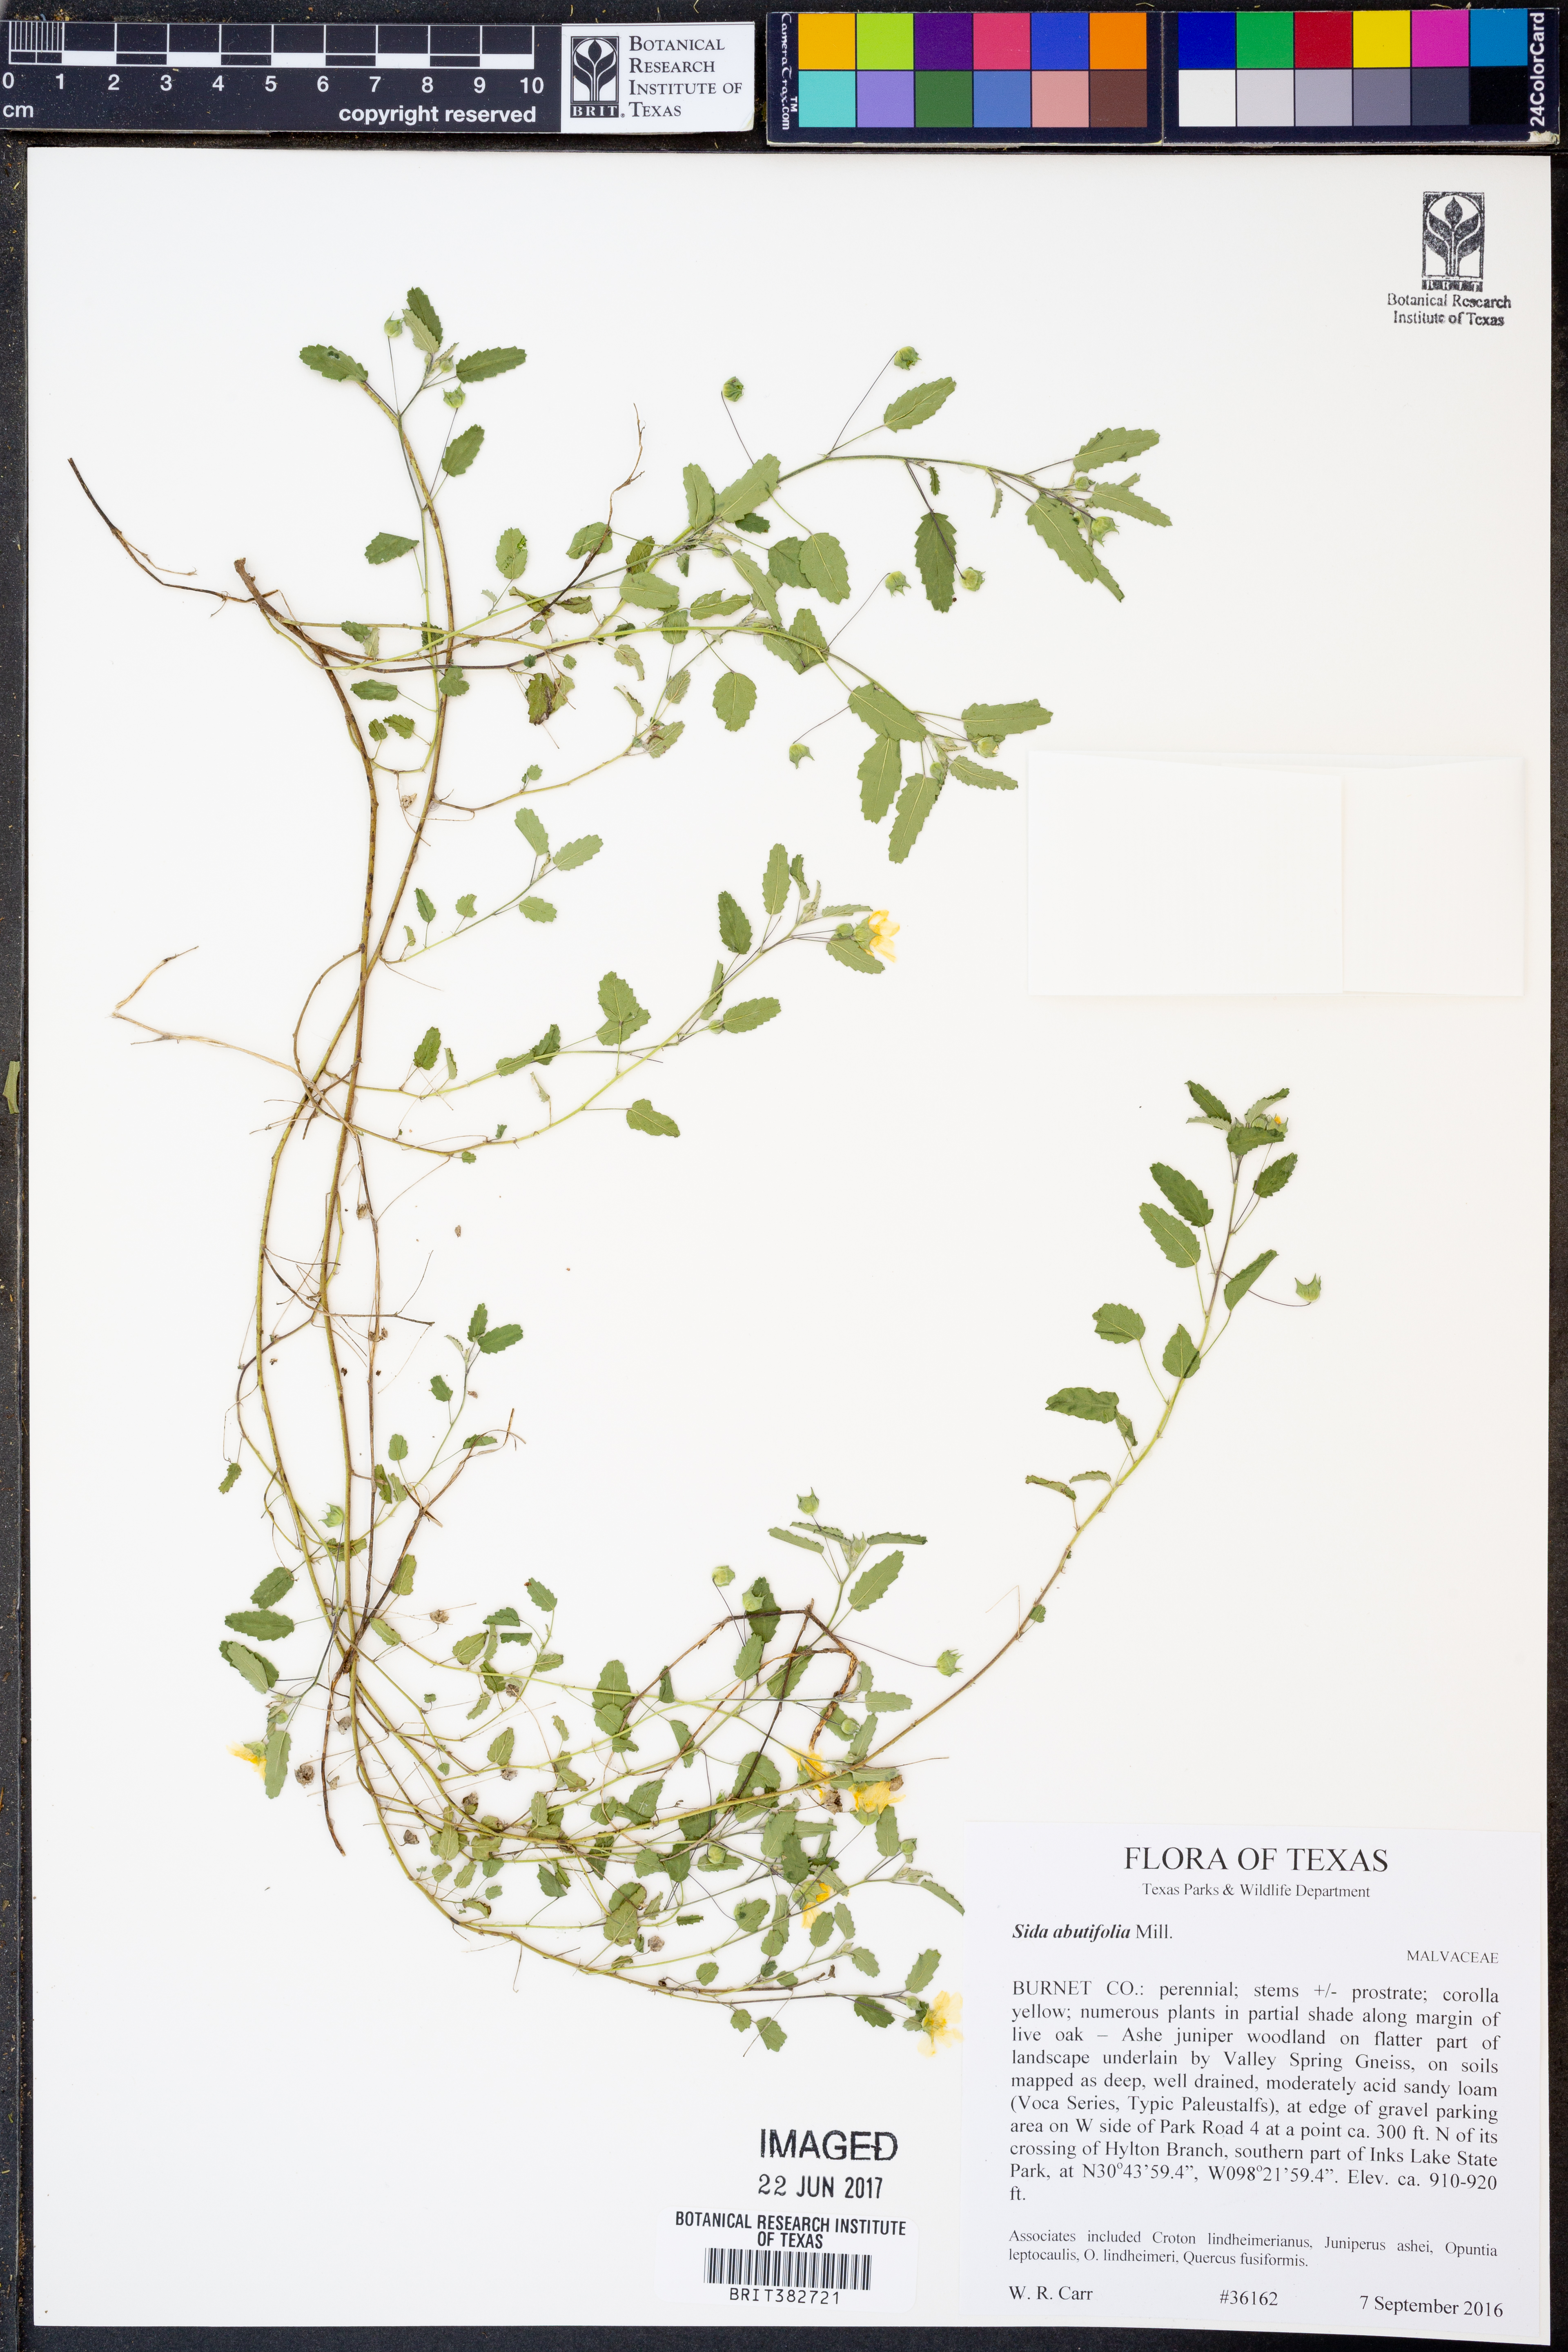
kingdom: Plantae
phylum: Tracheophyta
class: Magnoliopsida
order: Malvales
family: Malvaceae
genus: Sida
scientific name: Sida abutifolia
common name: Spreading fantails
